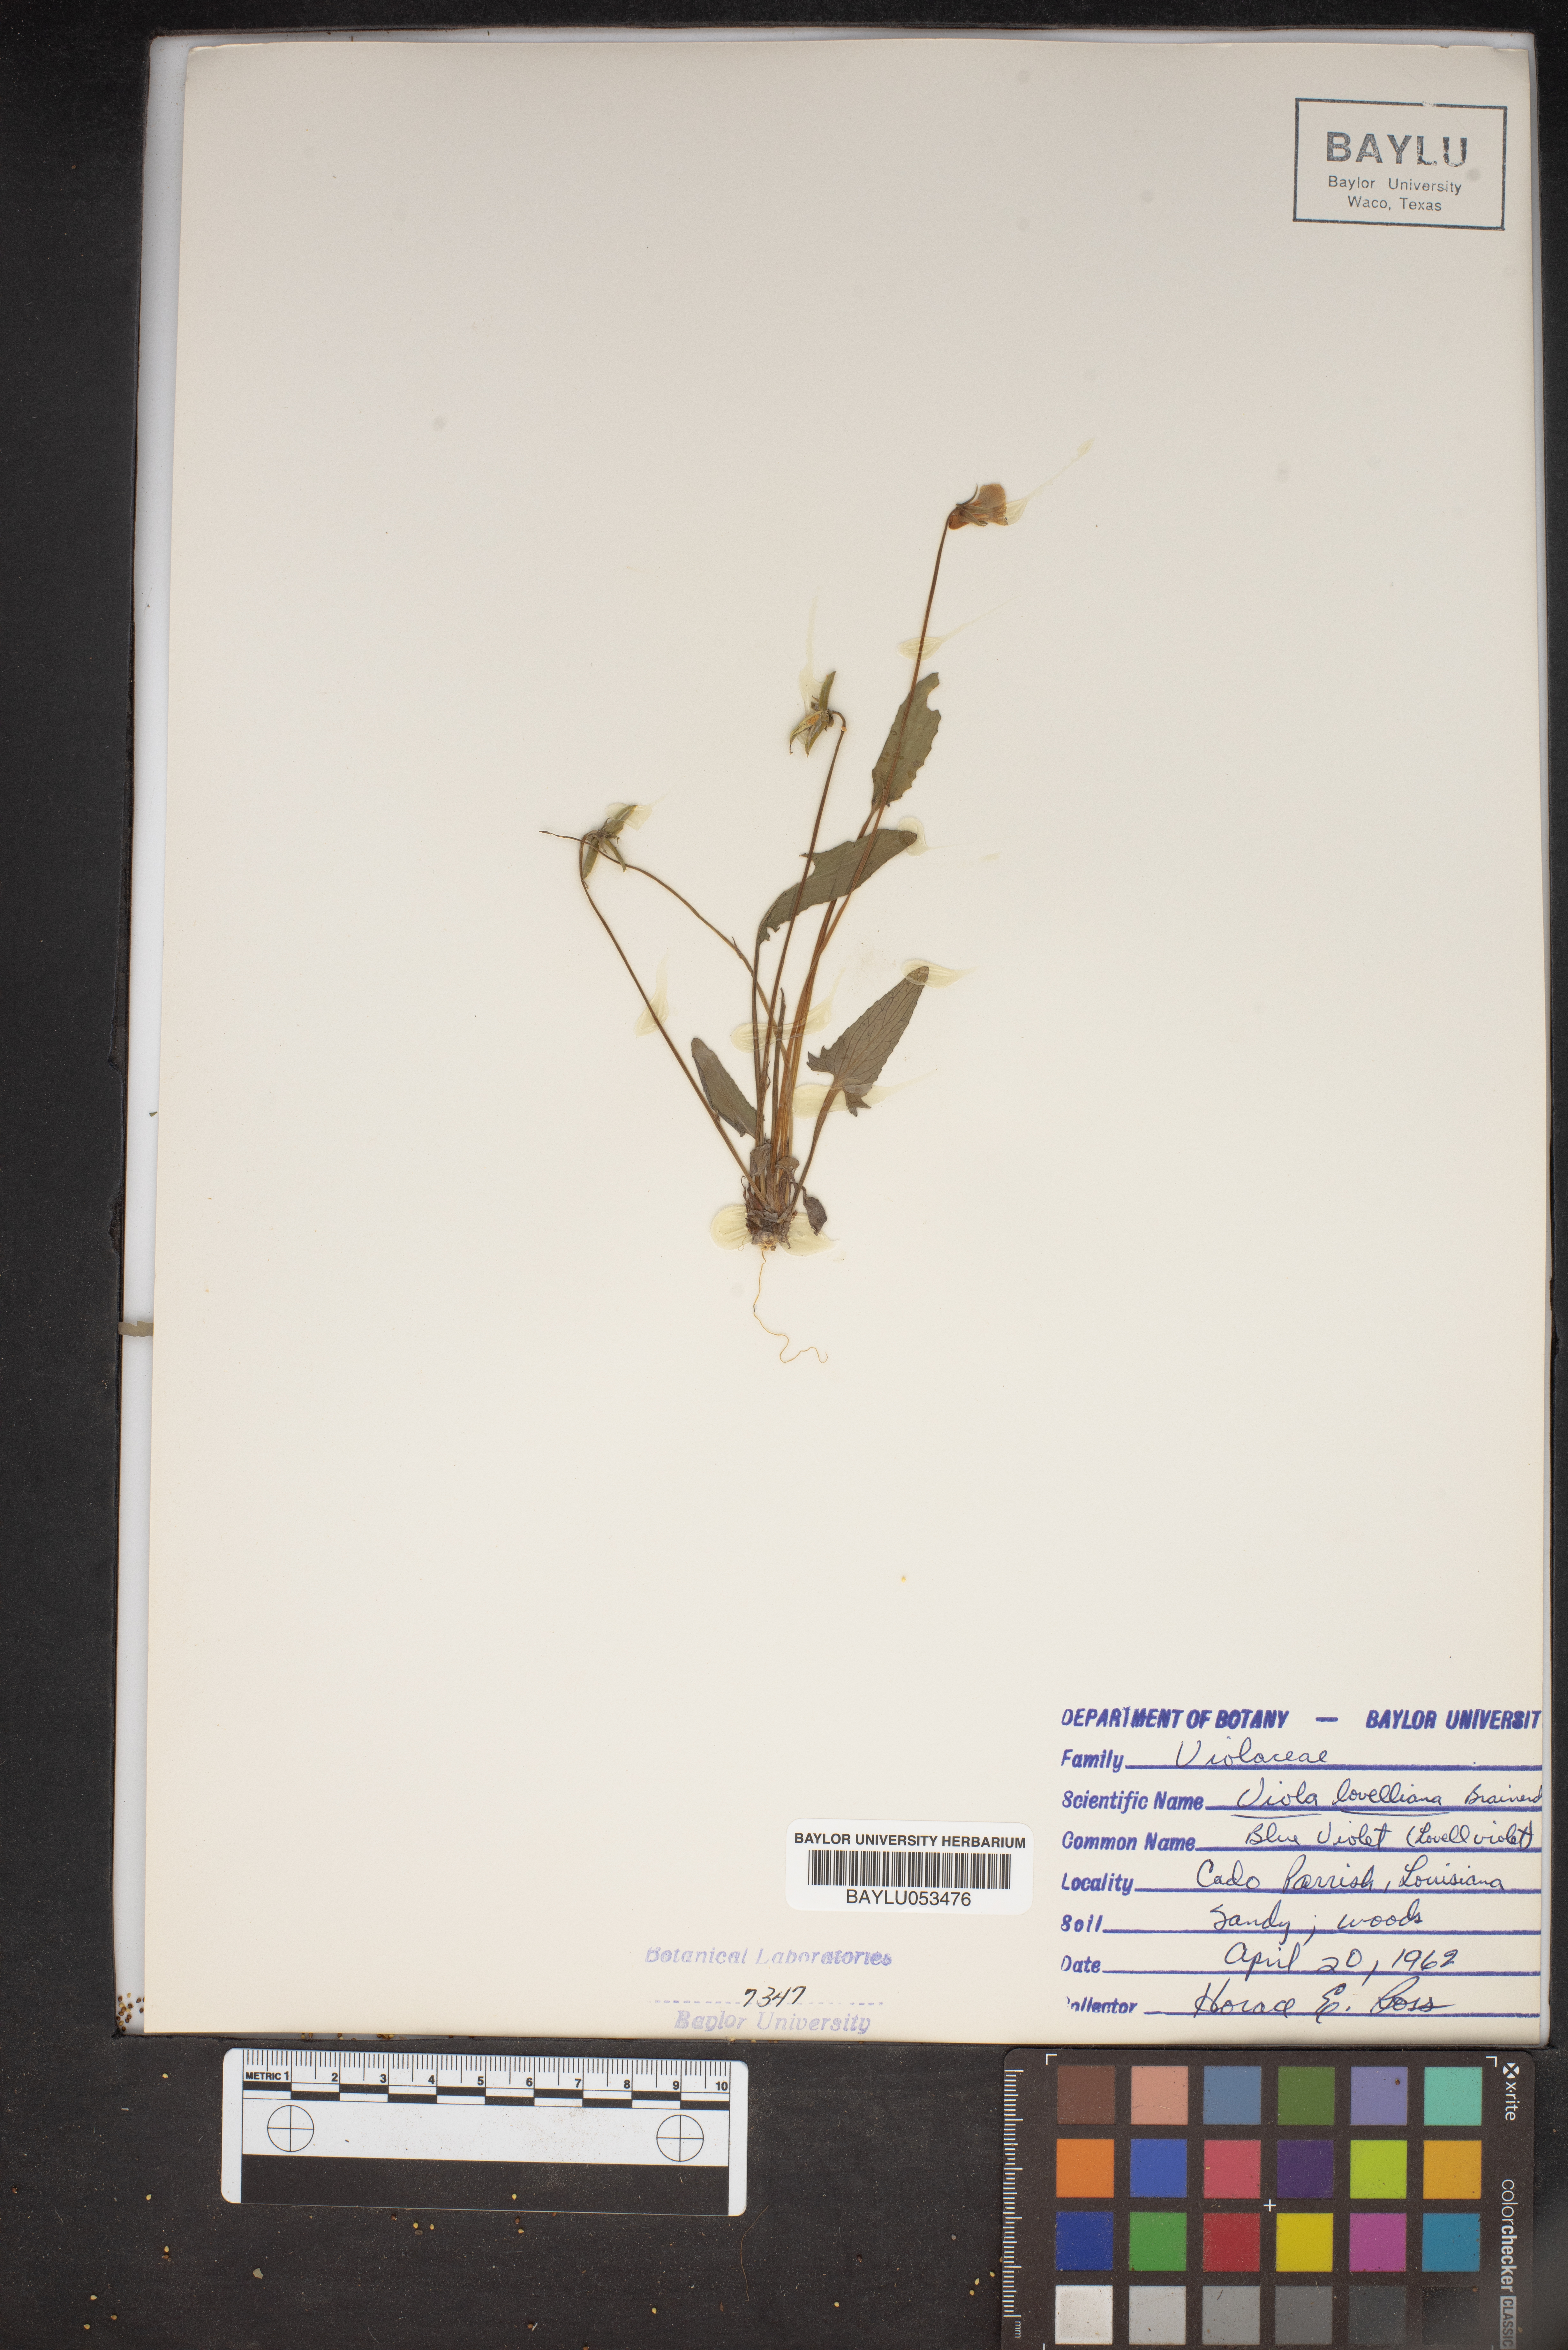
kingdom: Plantae
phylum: Tracheophyta
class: Magnoliopsida
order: Malpighiales
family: Violaceae
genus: Viola
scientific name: Viola lovelliana
